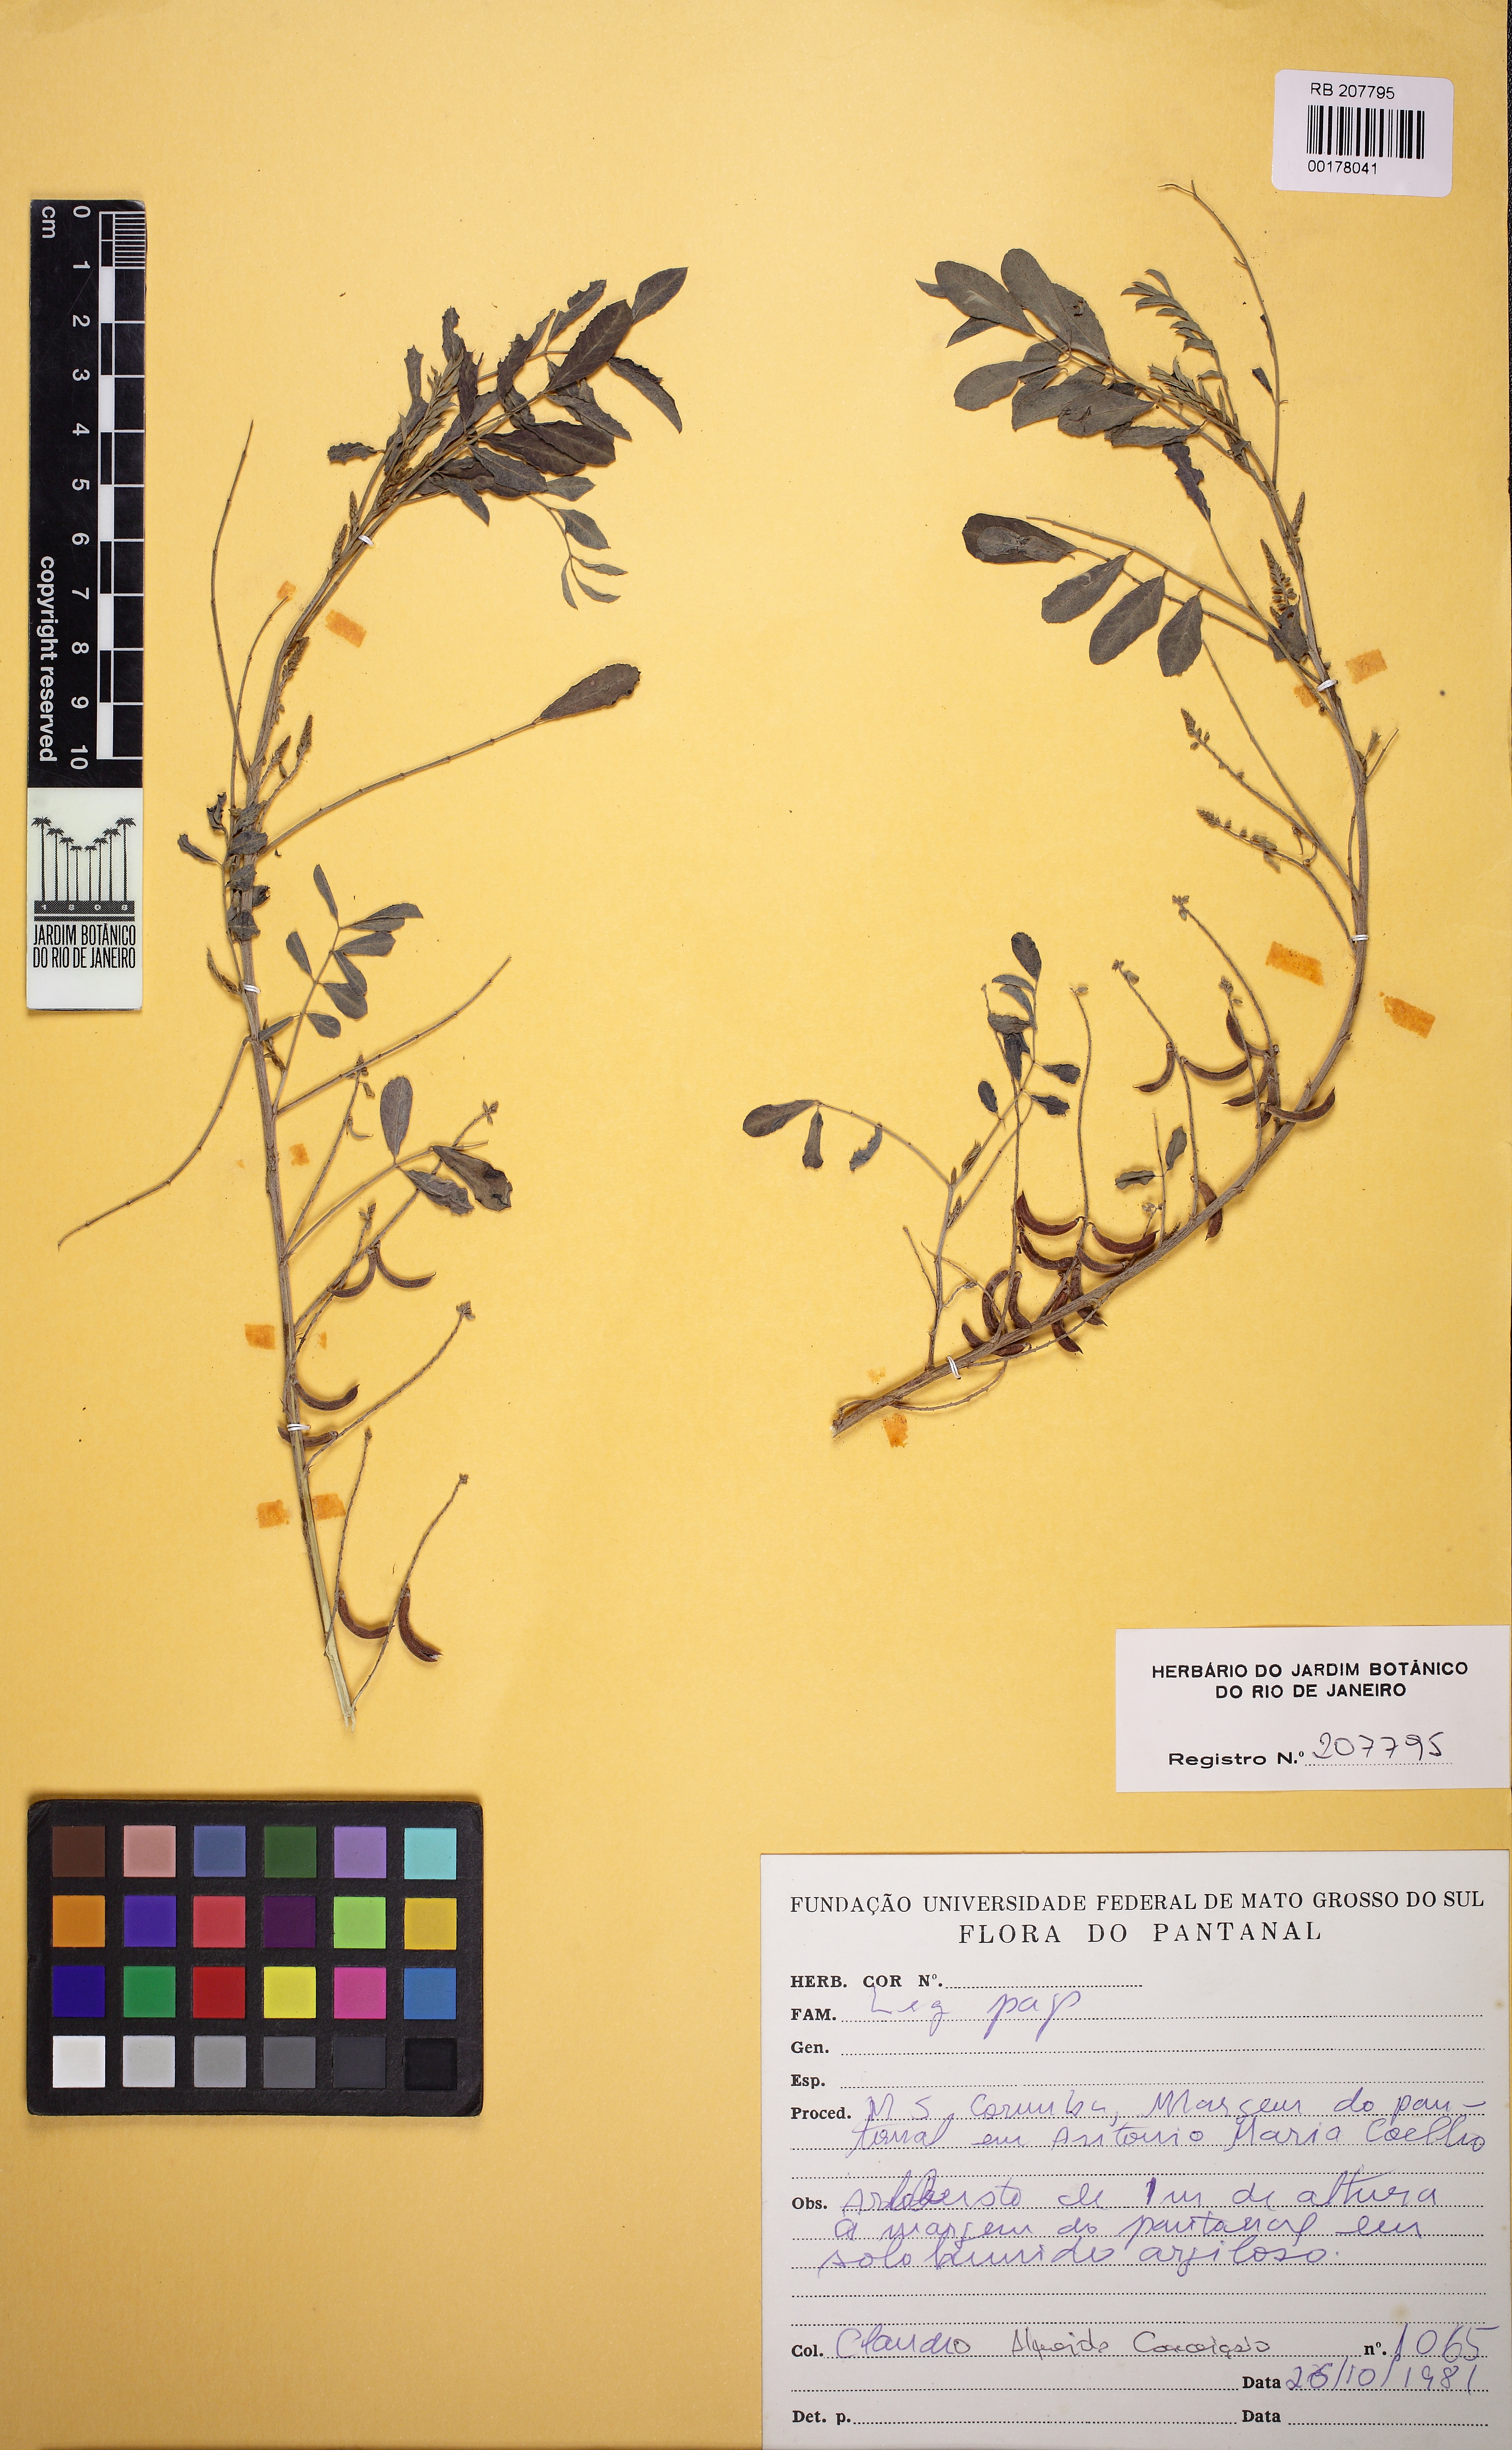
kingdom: Plantae
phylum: Tracheophyta
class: Magnoliopsida
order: Fabales
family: Fabaceae
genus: Indigofera
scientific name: Indigofera
